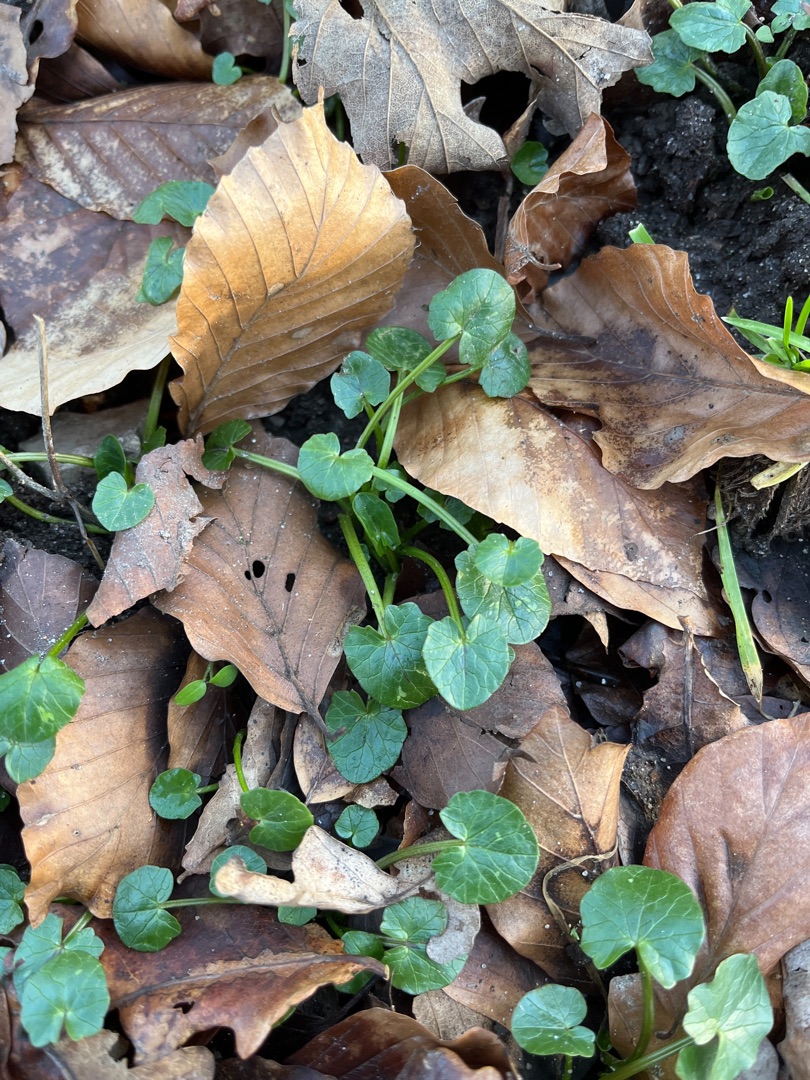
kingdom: Plantae
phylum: Tracheophyta
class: Magnoliopsida
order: Ranunculales
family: Ranunculaceae
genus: Ficaria
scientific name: Ficaria verna
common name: Vorterod
